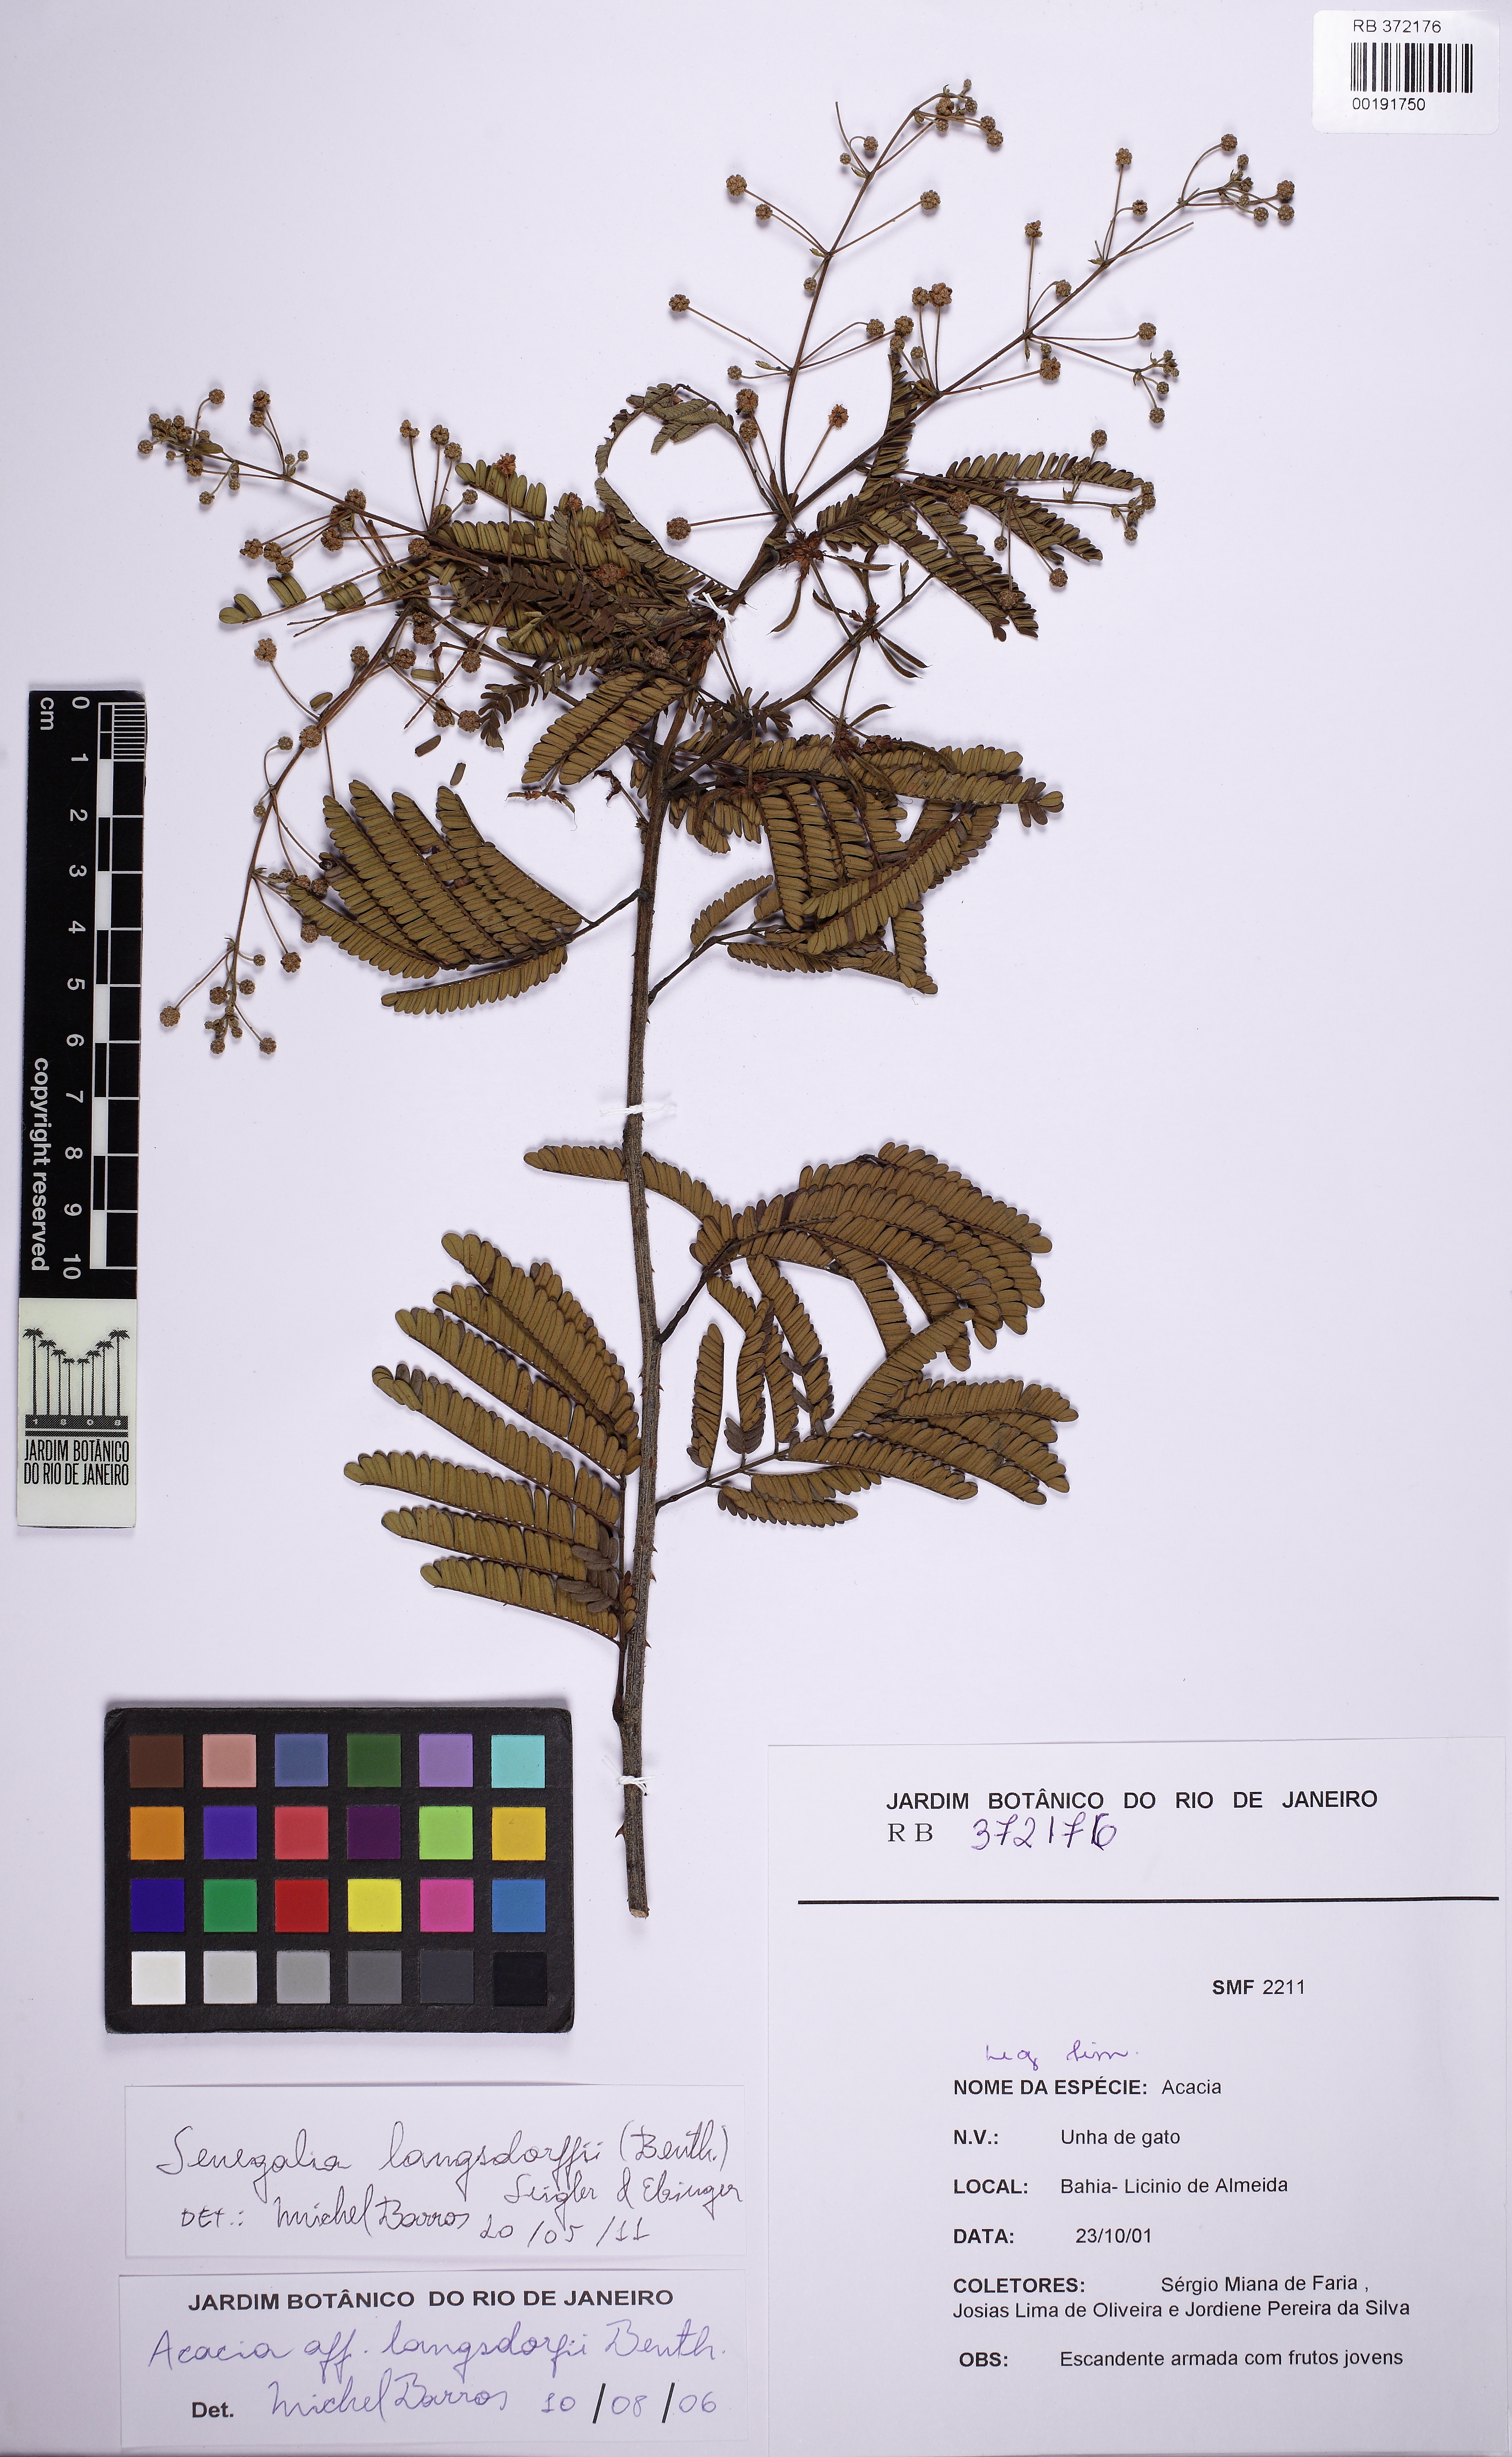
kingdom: Plantae
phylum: Tracheophyta
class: Magnoliopsida
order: Fabales
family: Fabaceae
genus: Senegalia
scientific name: Senegalia langsdorffii
